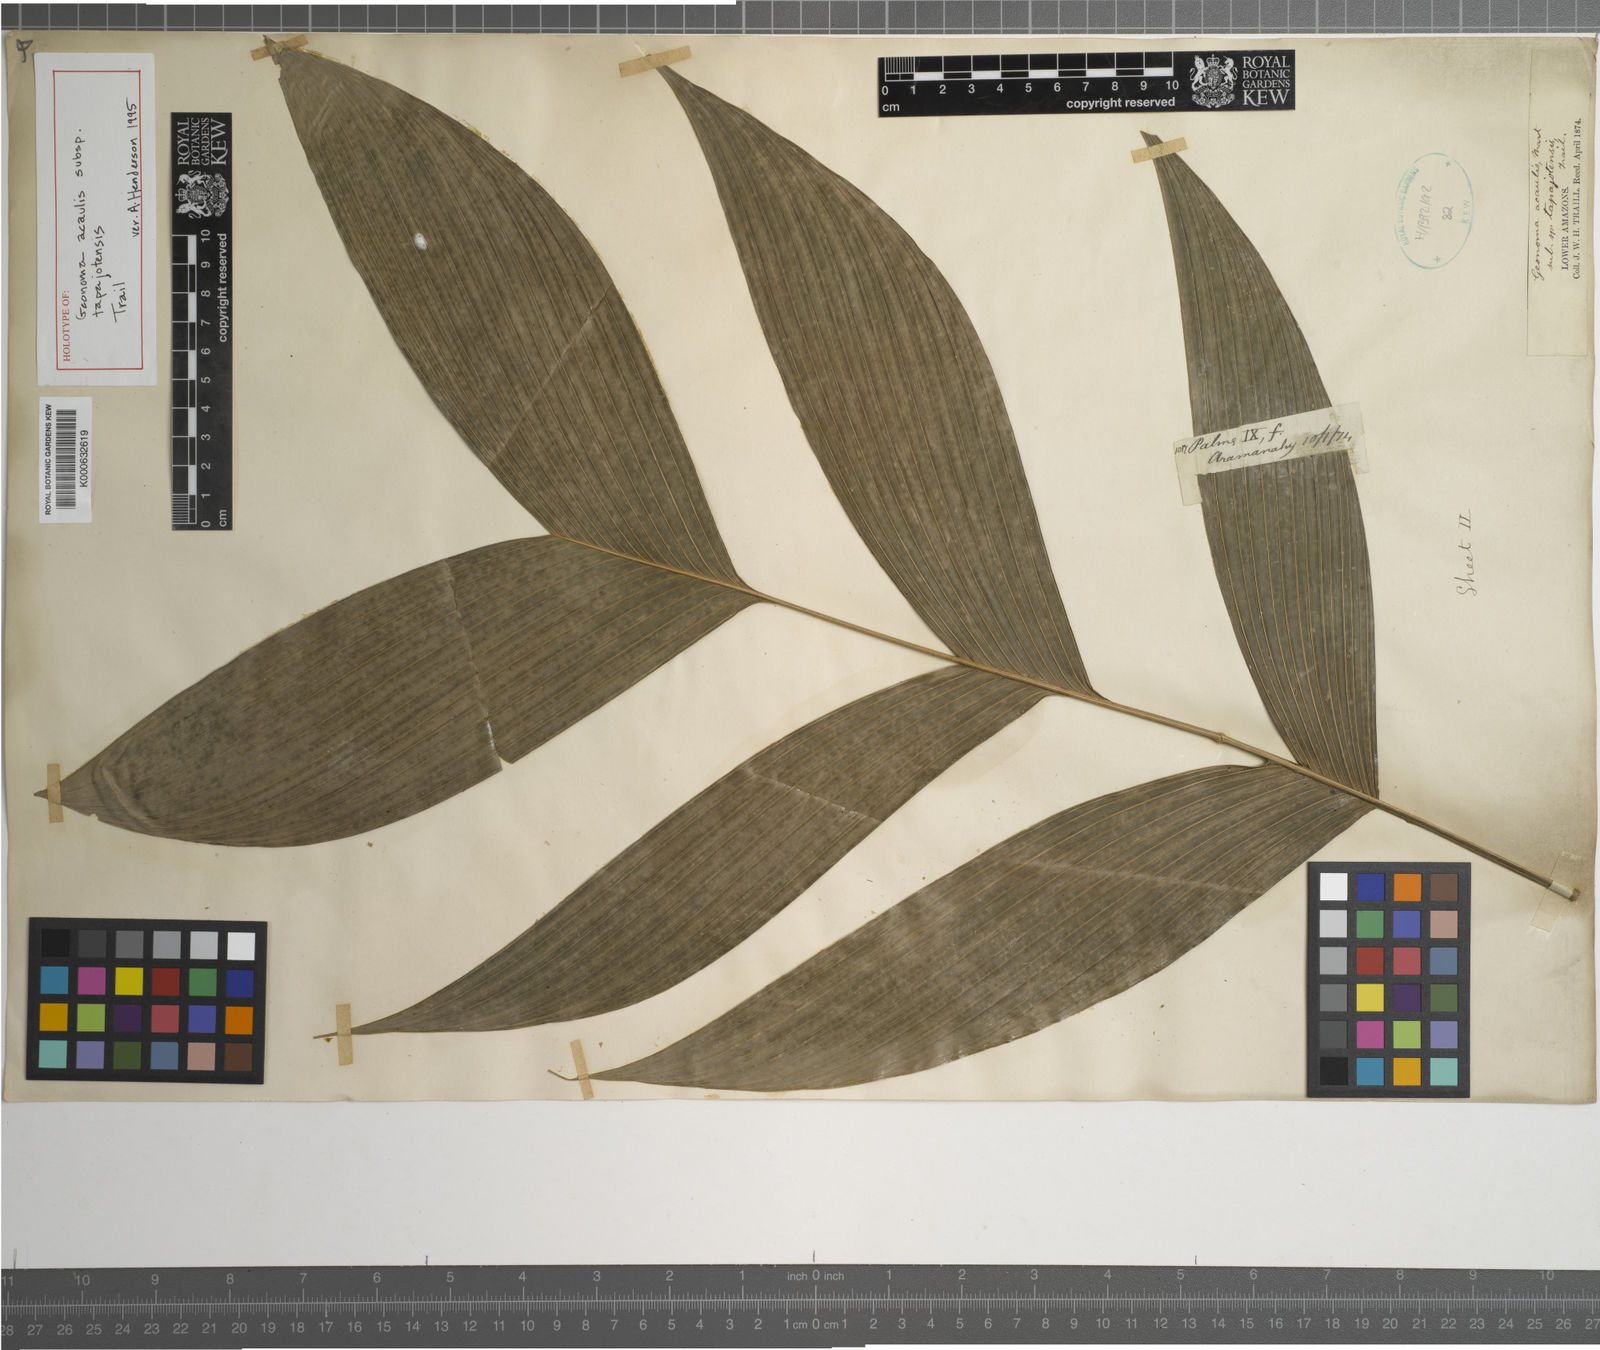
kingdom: Plantae
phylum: Tracheophyta
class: Liliopsida
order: Arecales
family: Arecaceae
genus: Geonoma
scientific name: Geonoma macrostachys
